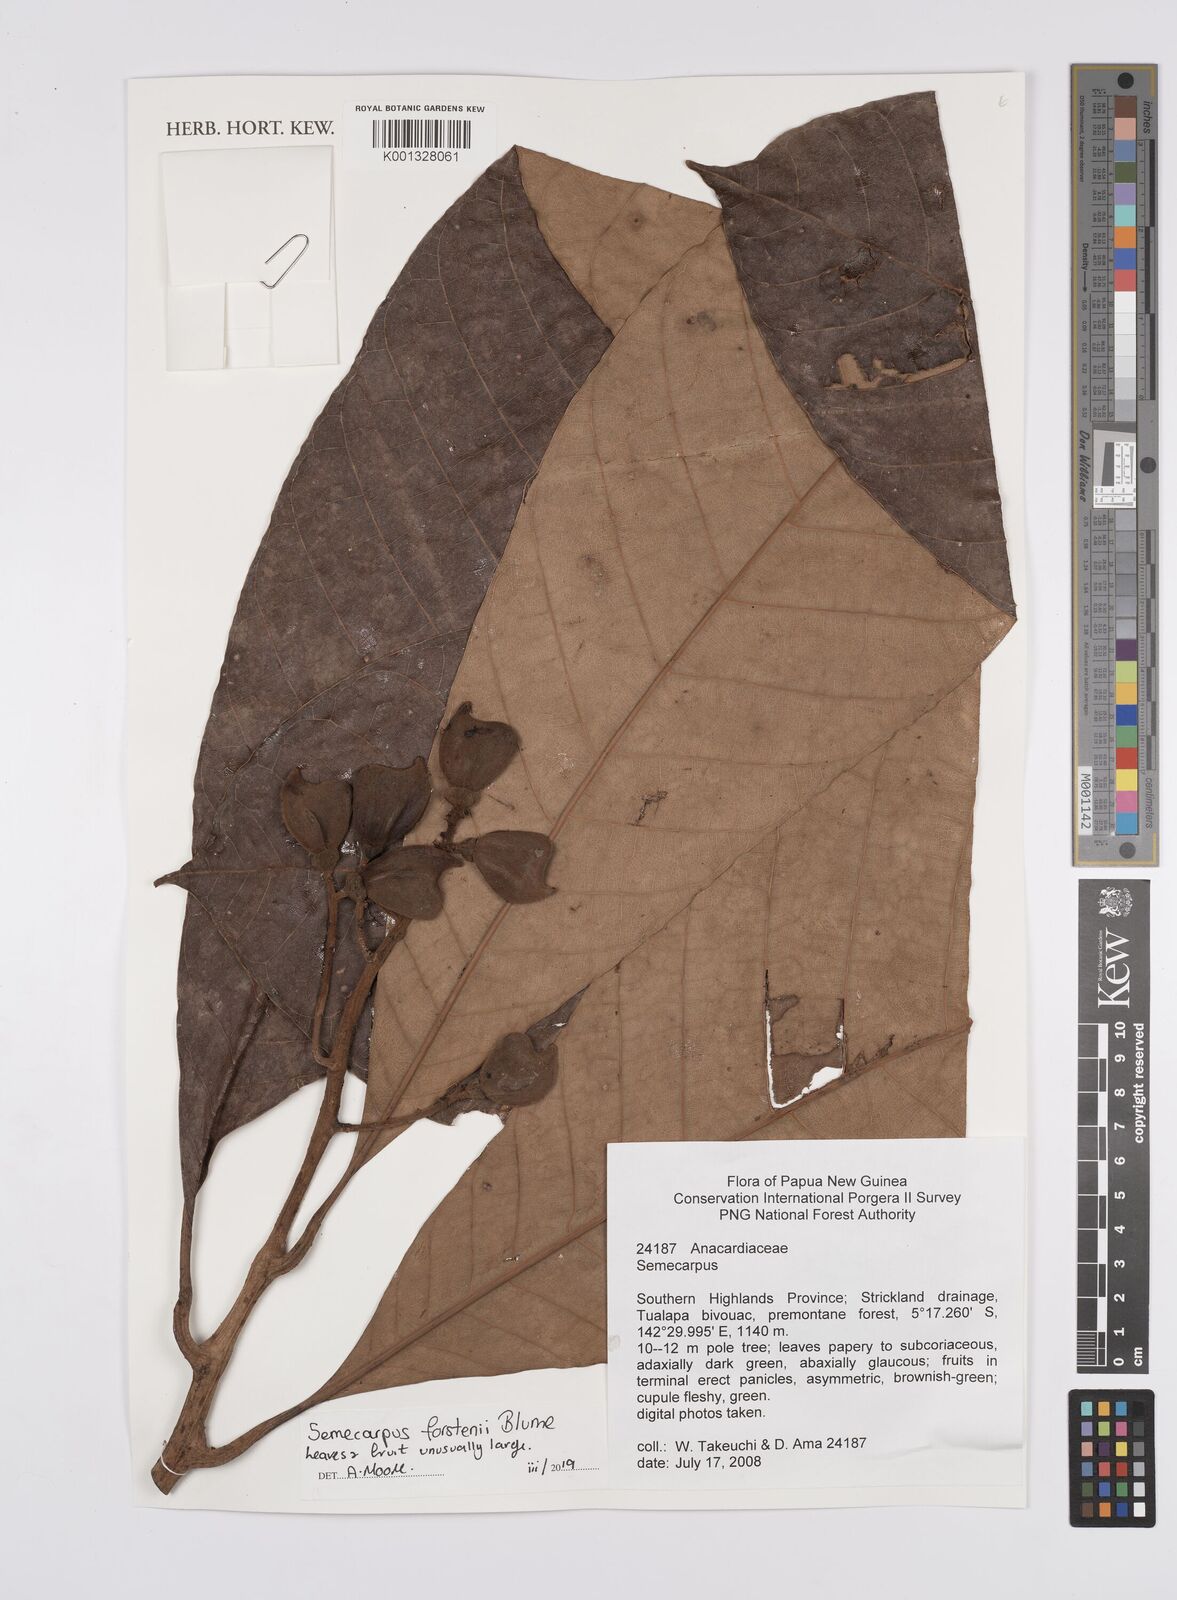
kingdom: Plantae
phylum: Tracheophyta
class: Magnoliopsida
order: Sapindales
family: Anacardiaceae
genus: Semecarpus
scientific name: Semecarpus forstenii
